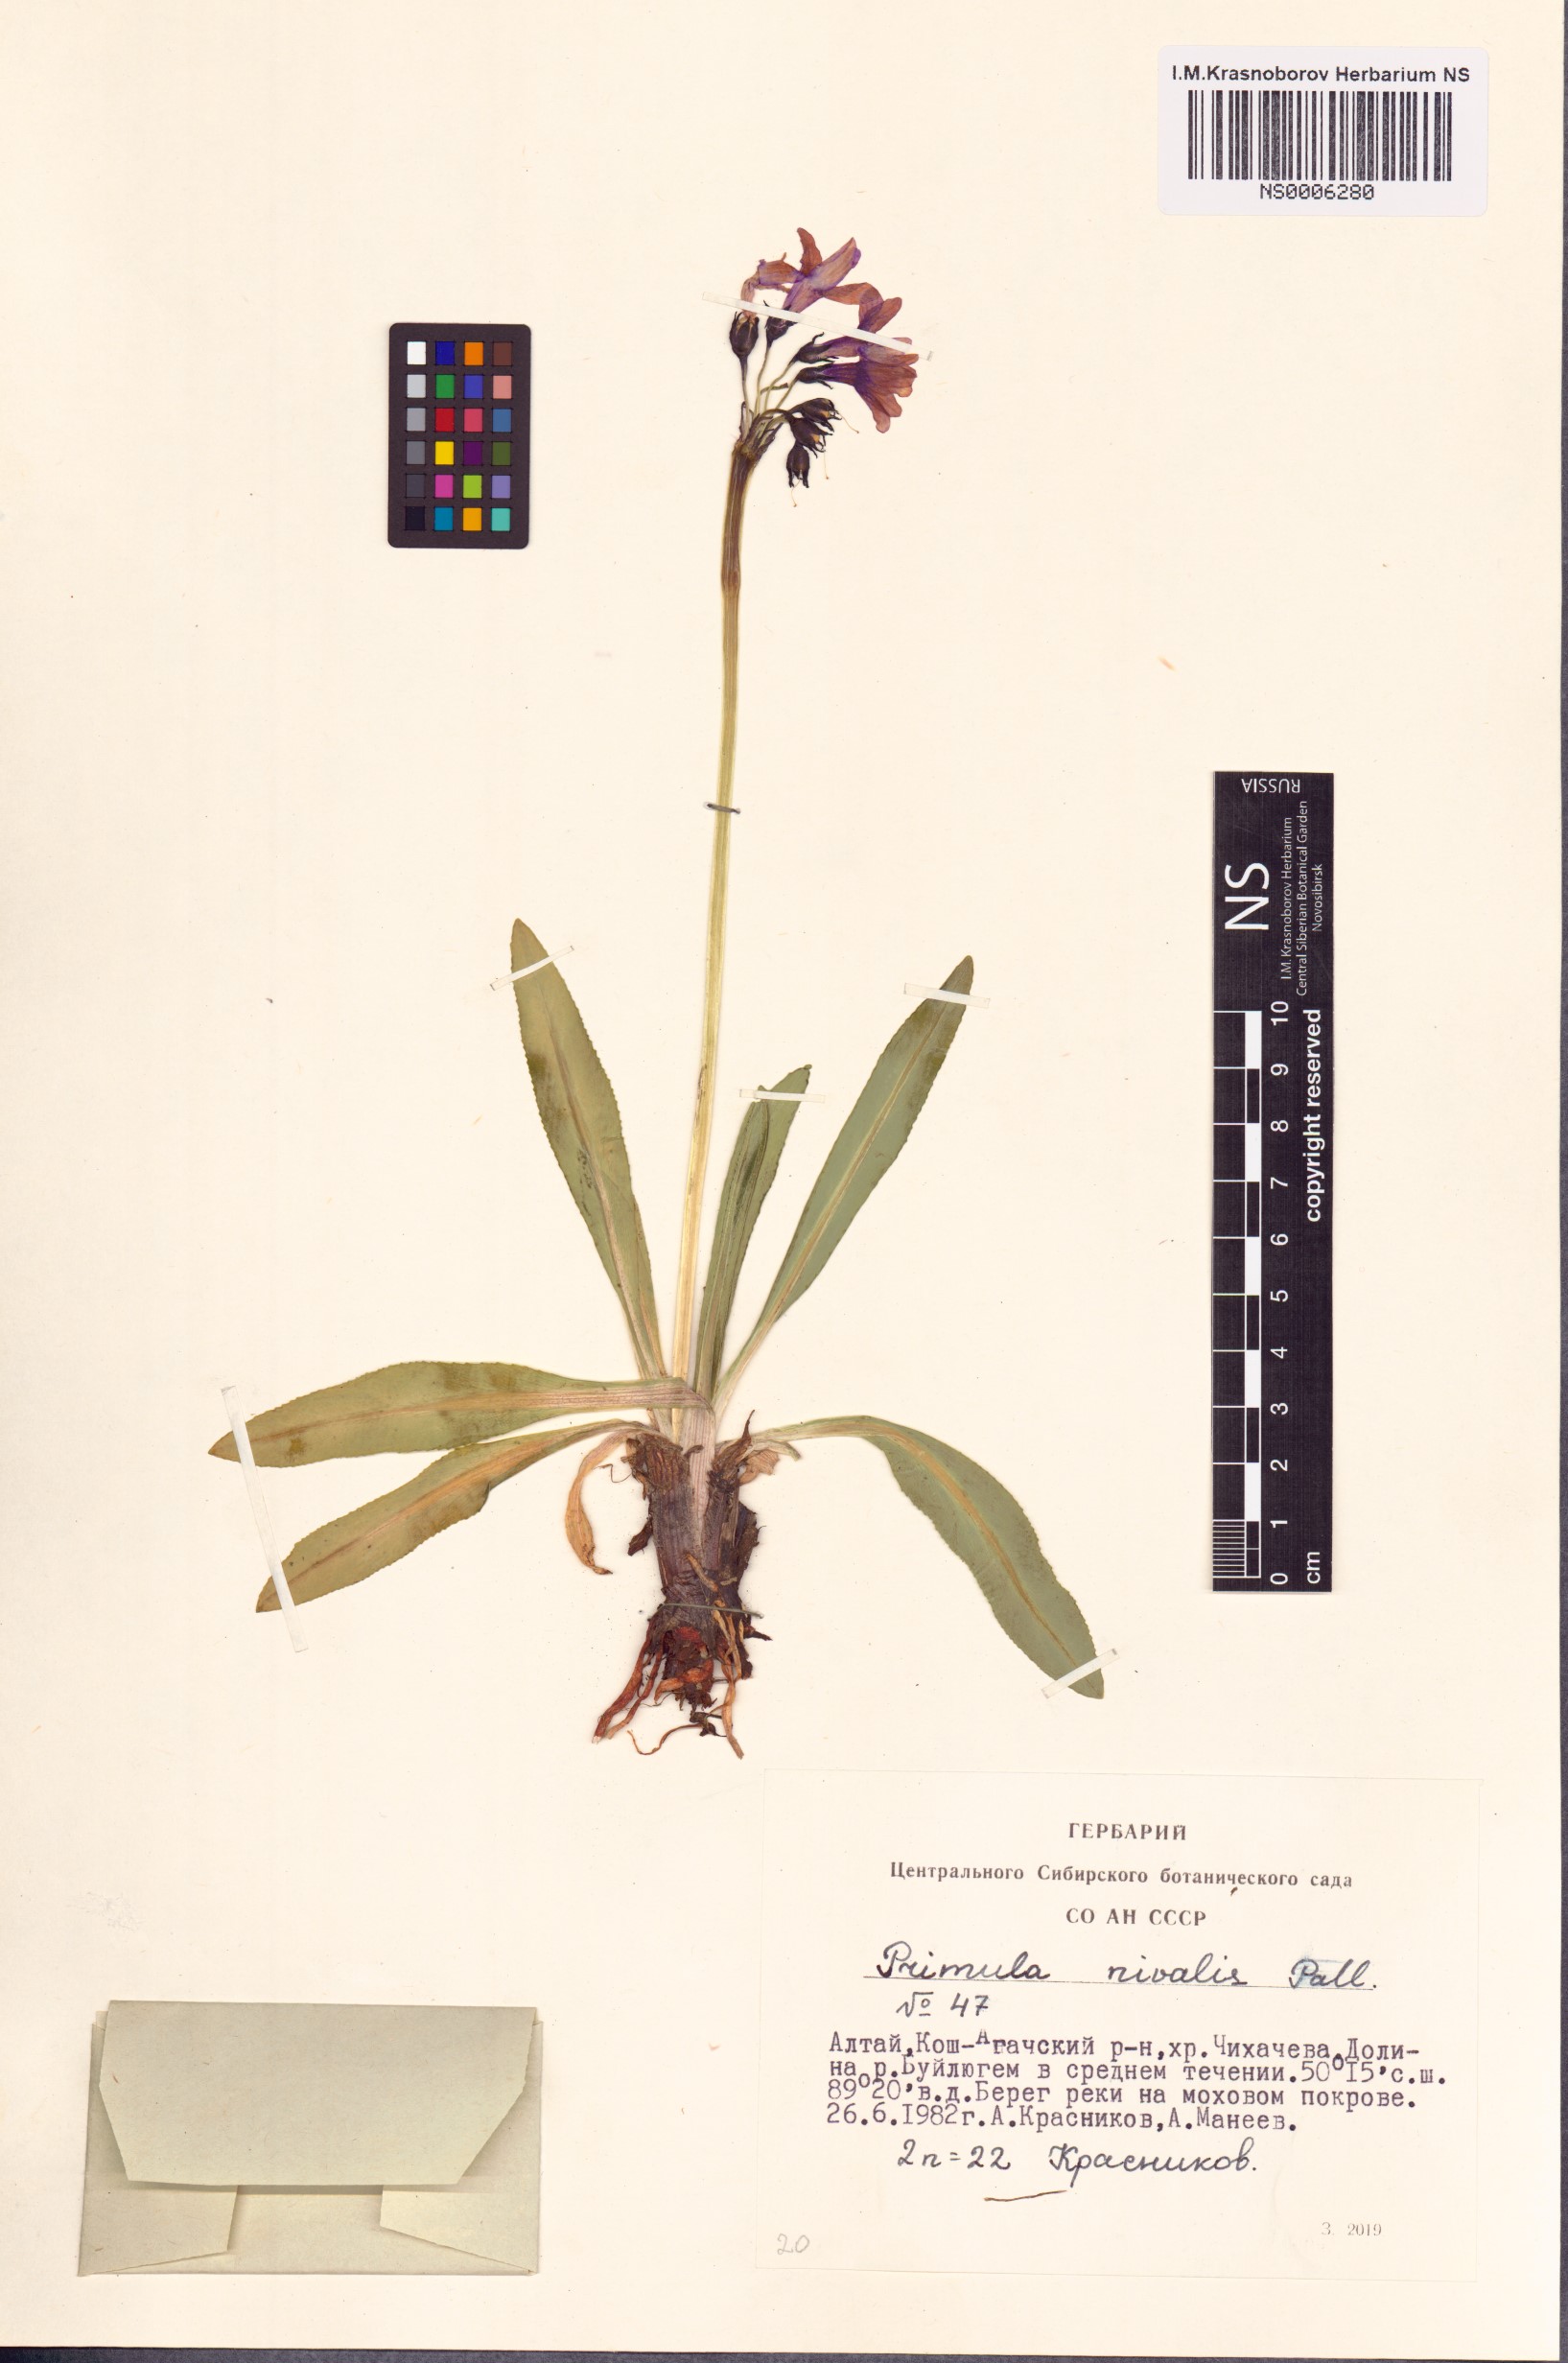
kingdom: Plantae
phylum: Tracheophyta
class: Magnoliopsida
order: Ericales
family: Primulaceae
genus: Primula
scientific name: Primula nivalis
